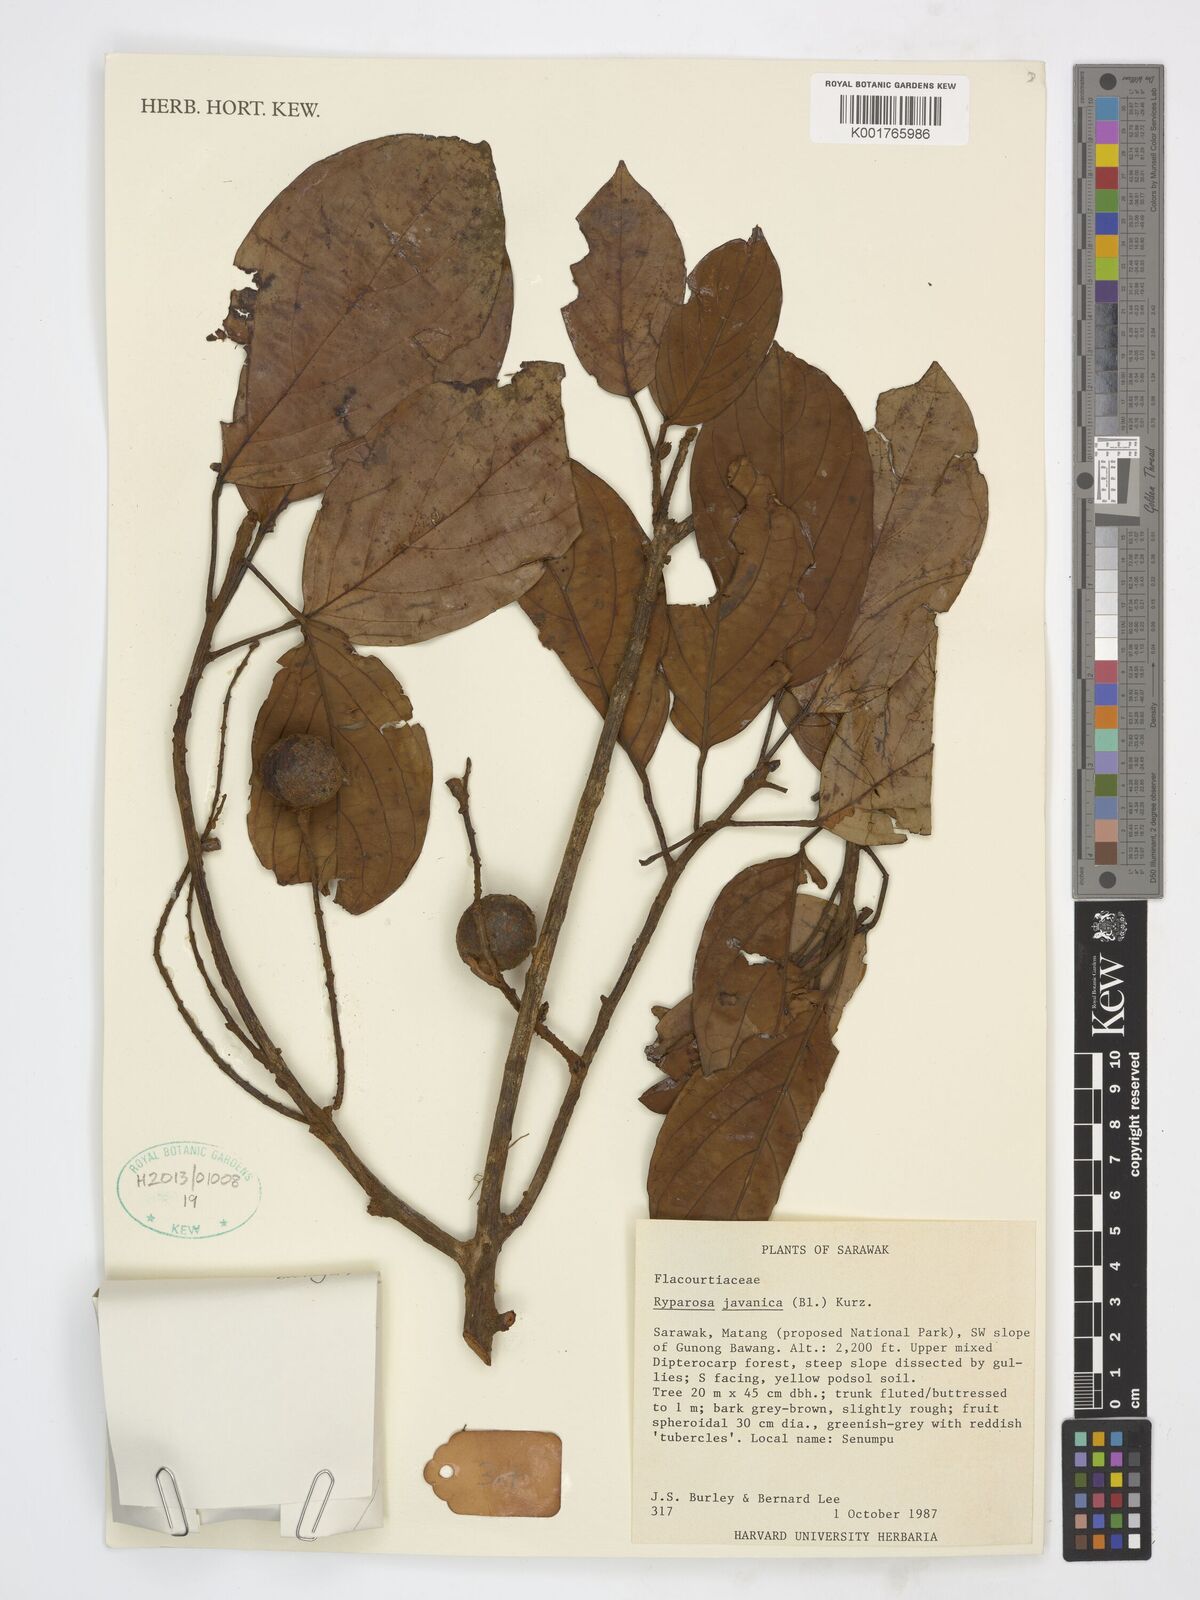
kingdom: Plantae
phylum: Tracheophyta
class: Magnoliopsida
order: Malpighiales
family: Achariaceae
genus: Ryparosa
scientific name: Ryparosa javanica
